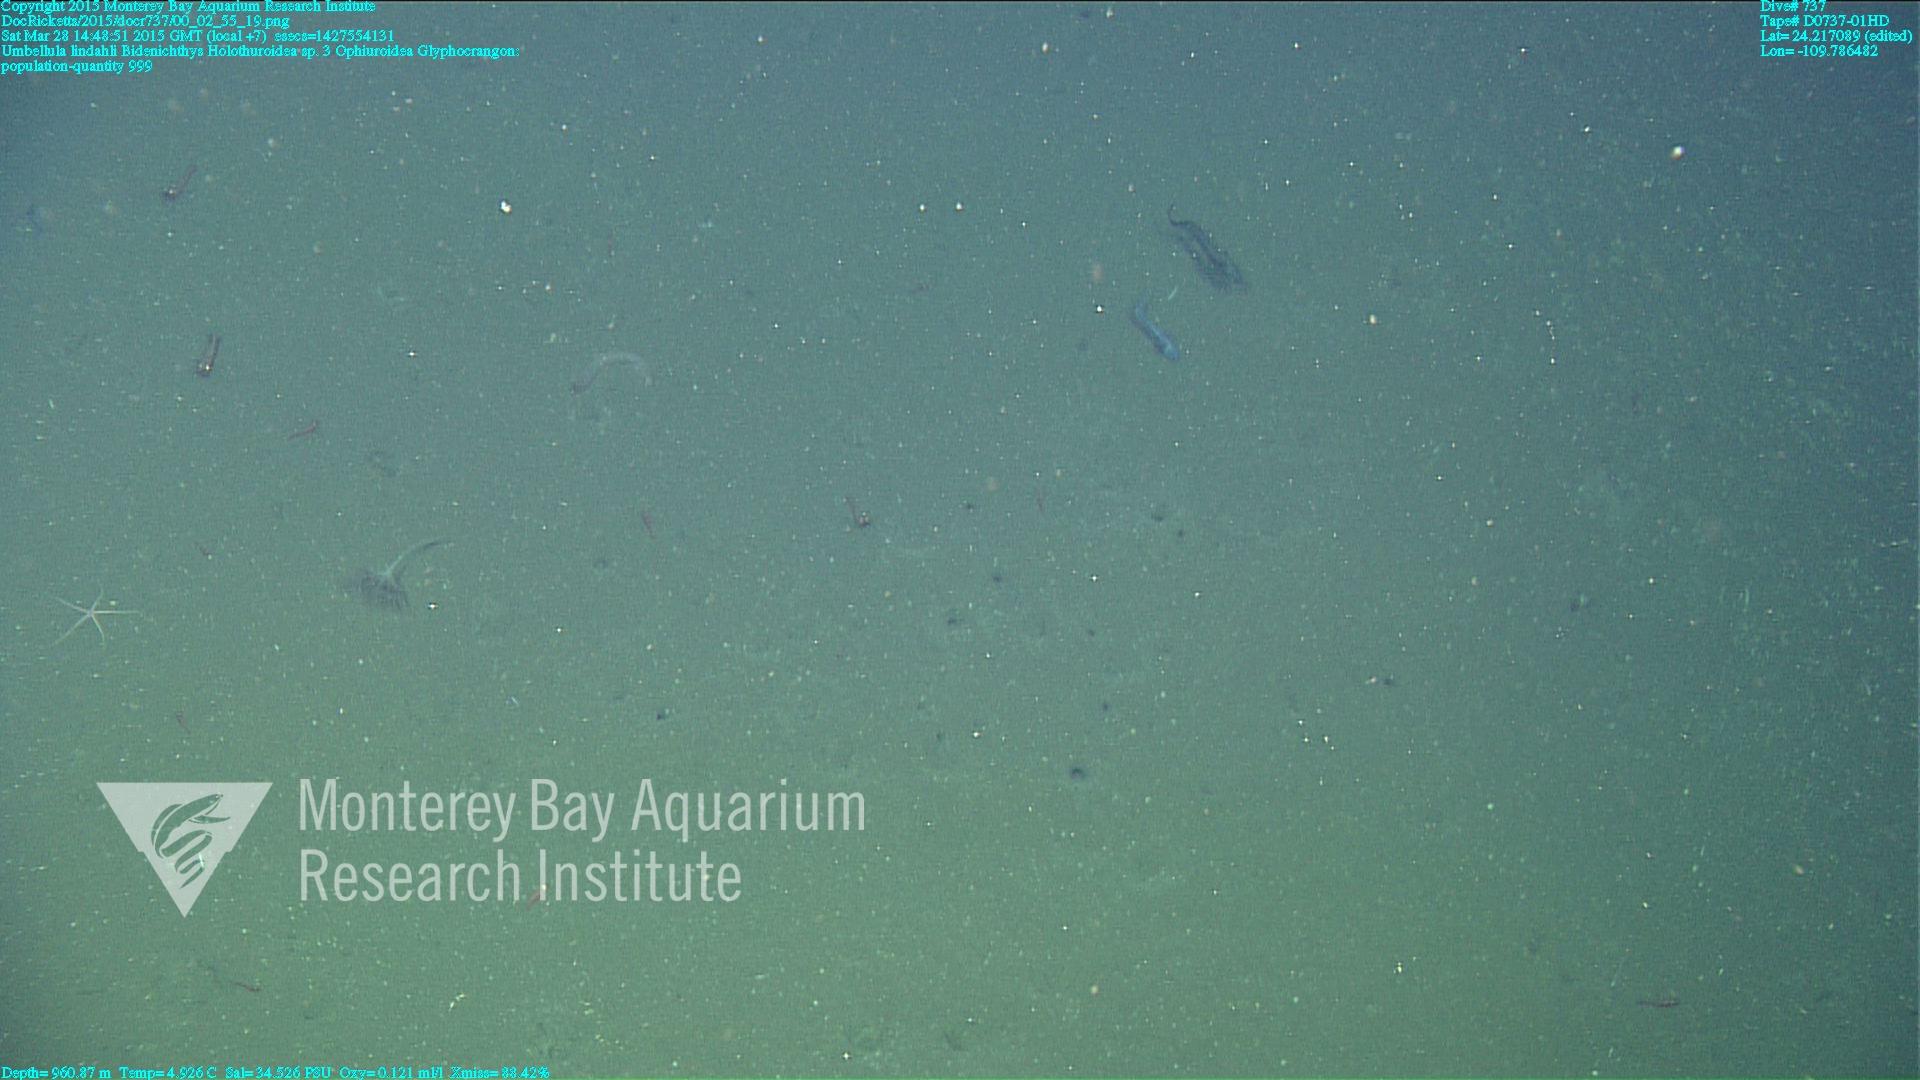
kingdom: Animalia
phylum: Cnidaria
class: Anthozoa
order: Scleralcyonacea
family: Umbellulidae
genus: Umbellula
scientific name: Umbellula lindahli
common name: Lindahl's droopy sea pen
